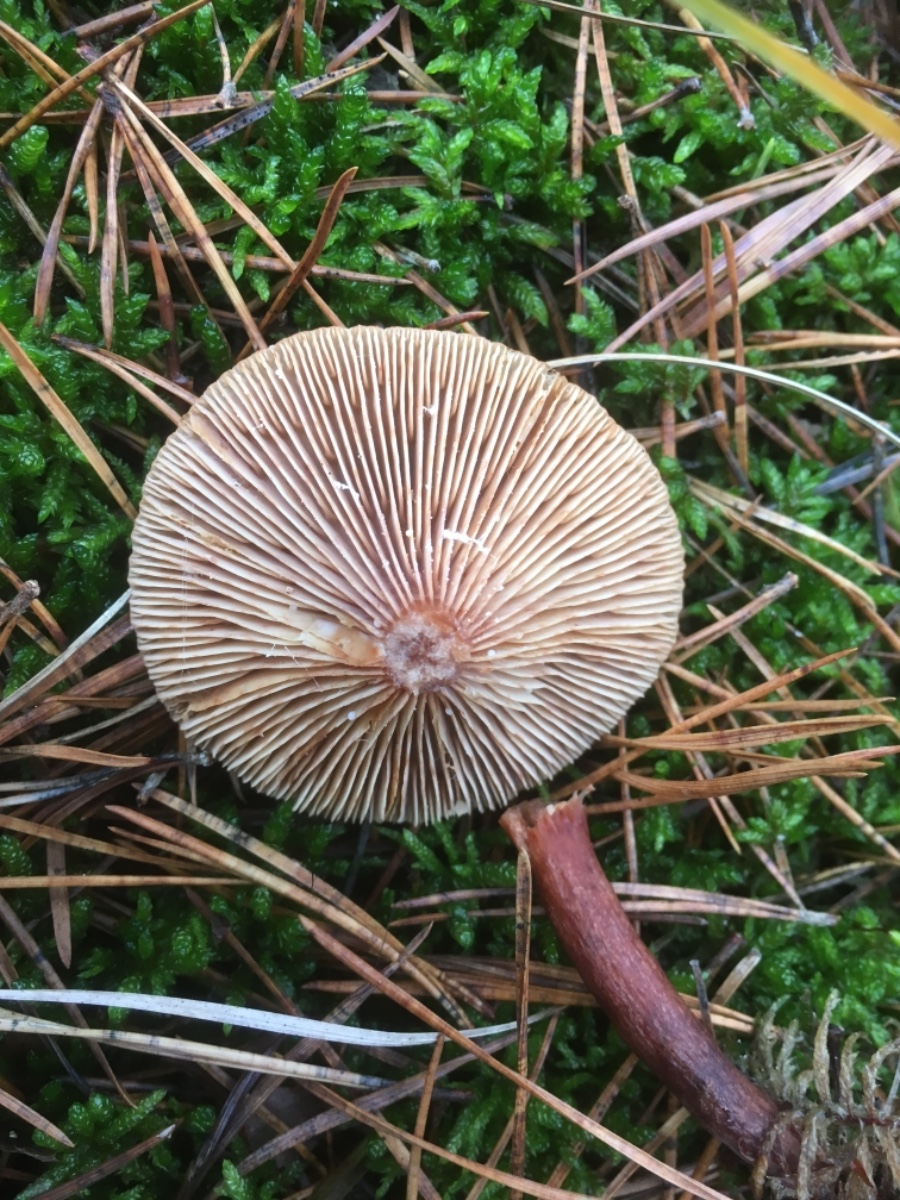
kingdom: Fungi
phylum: Basidiomycota
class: Agaricomycetes
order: Russulales
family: Russulaceae
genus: Lactarius
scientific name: Lactarius tabidus
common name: rynket mælkehat
